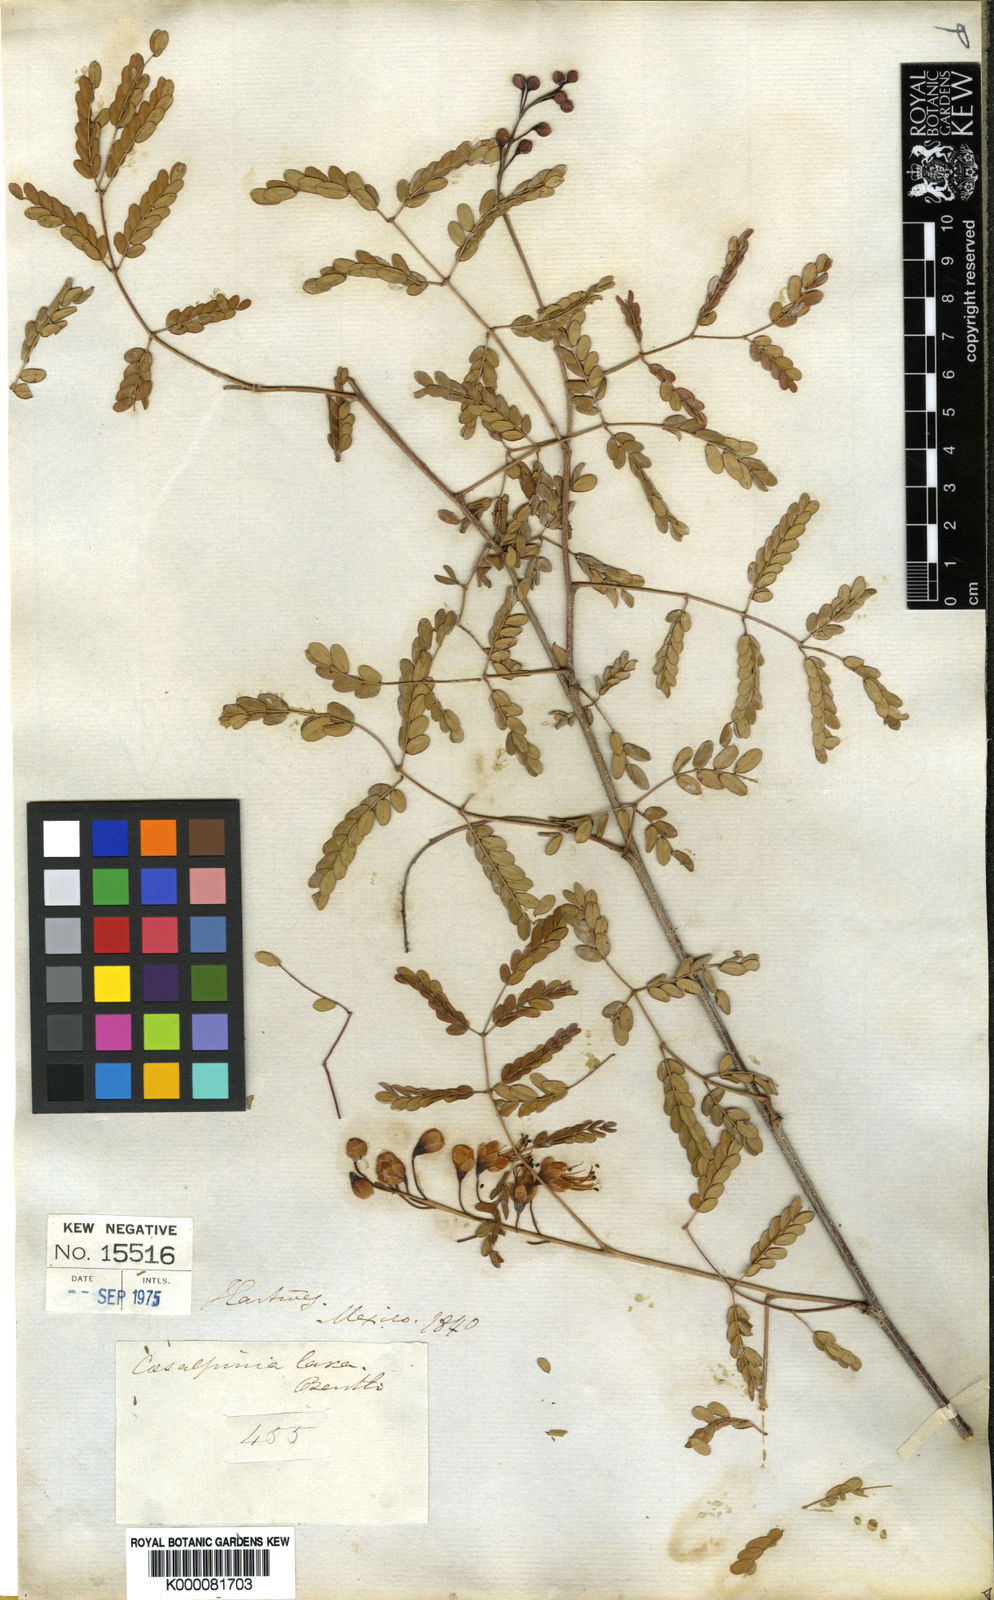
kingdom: Plantae
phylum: Tracheophyta
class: Magnoliopsida
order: Fabales
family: Fabaceae
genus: Erythrostemon
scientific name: Erythrostemon laxus
